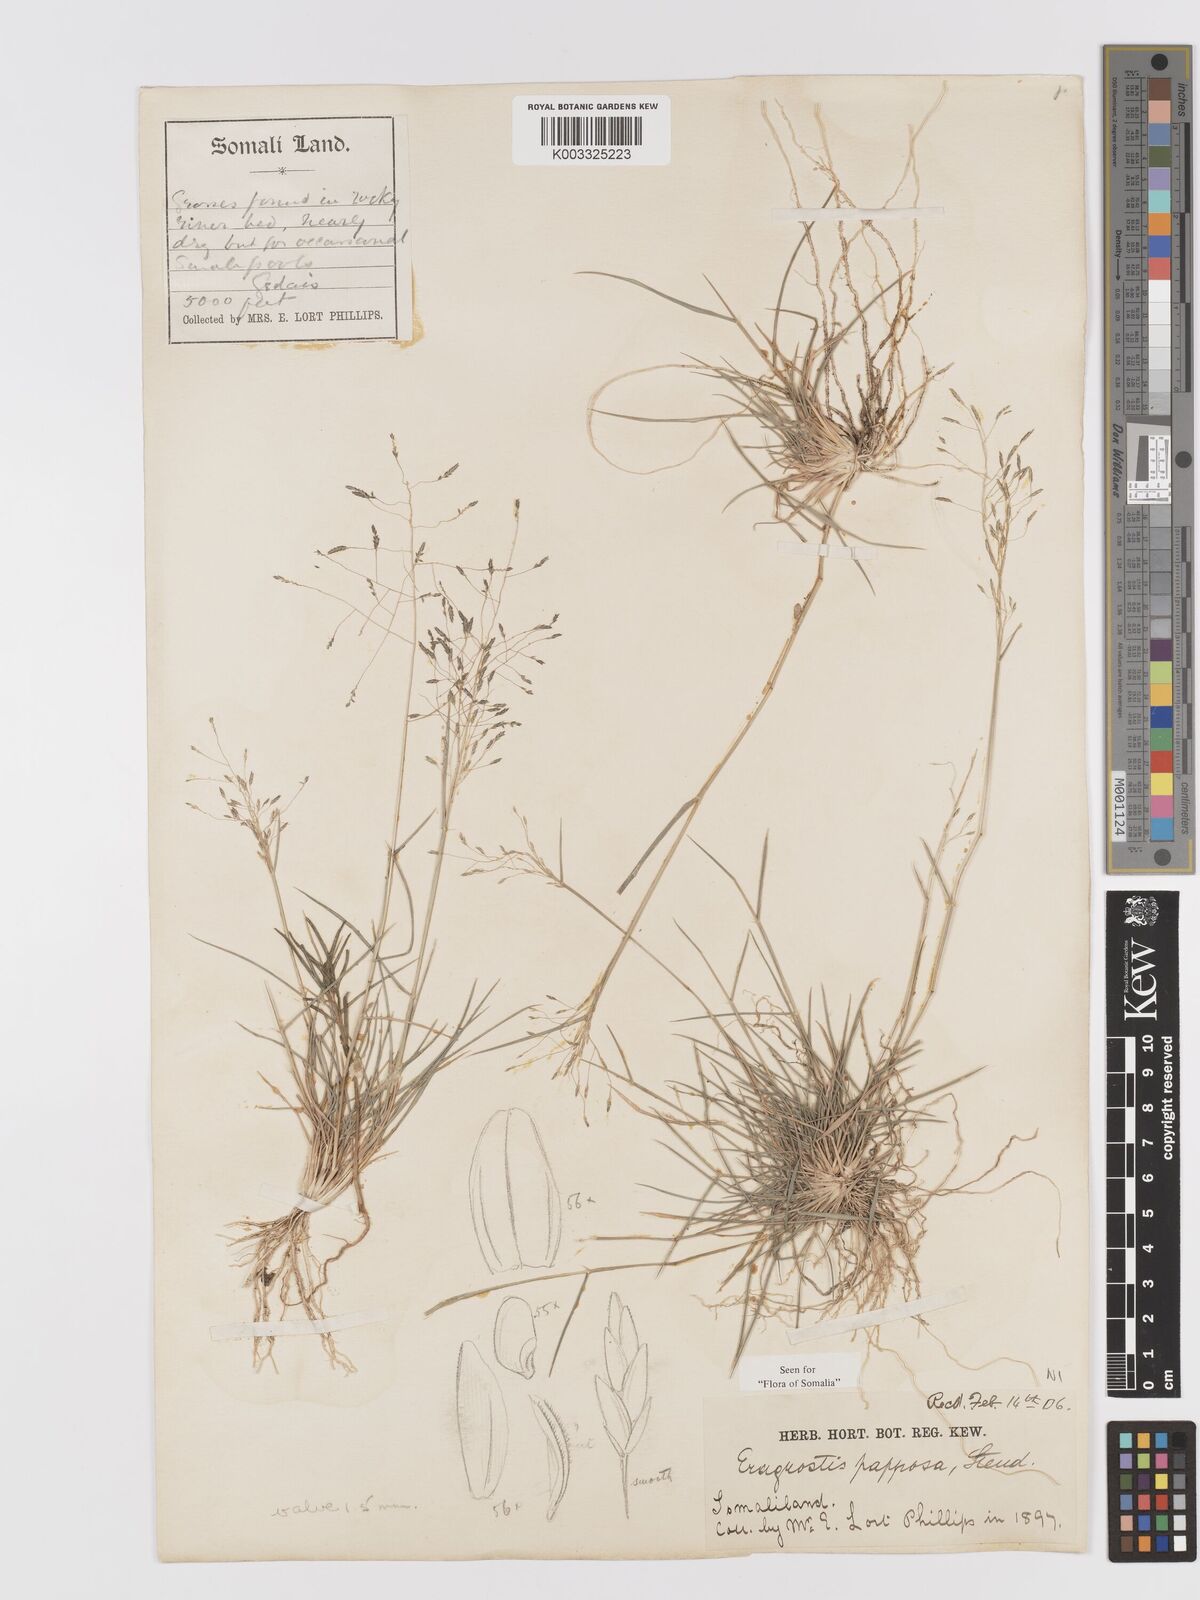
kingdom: Plantae
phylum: Tracheophyta
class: Liliopsida
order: Poales
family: Poaceae
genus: Eragrostis
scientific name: Eragrostis papposa
